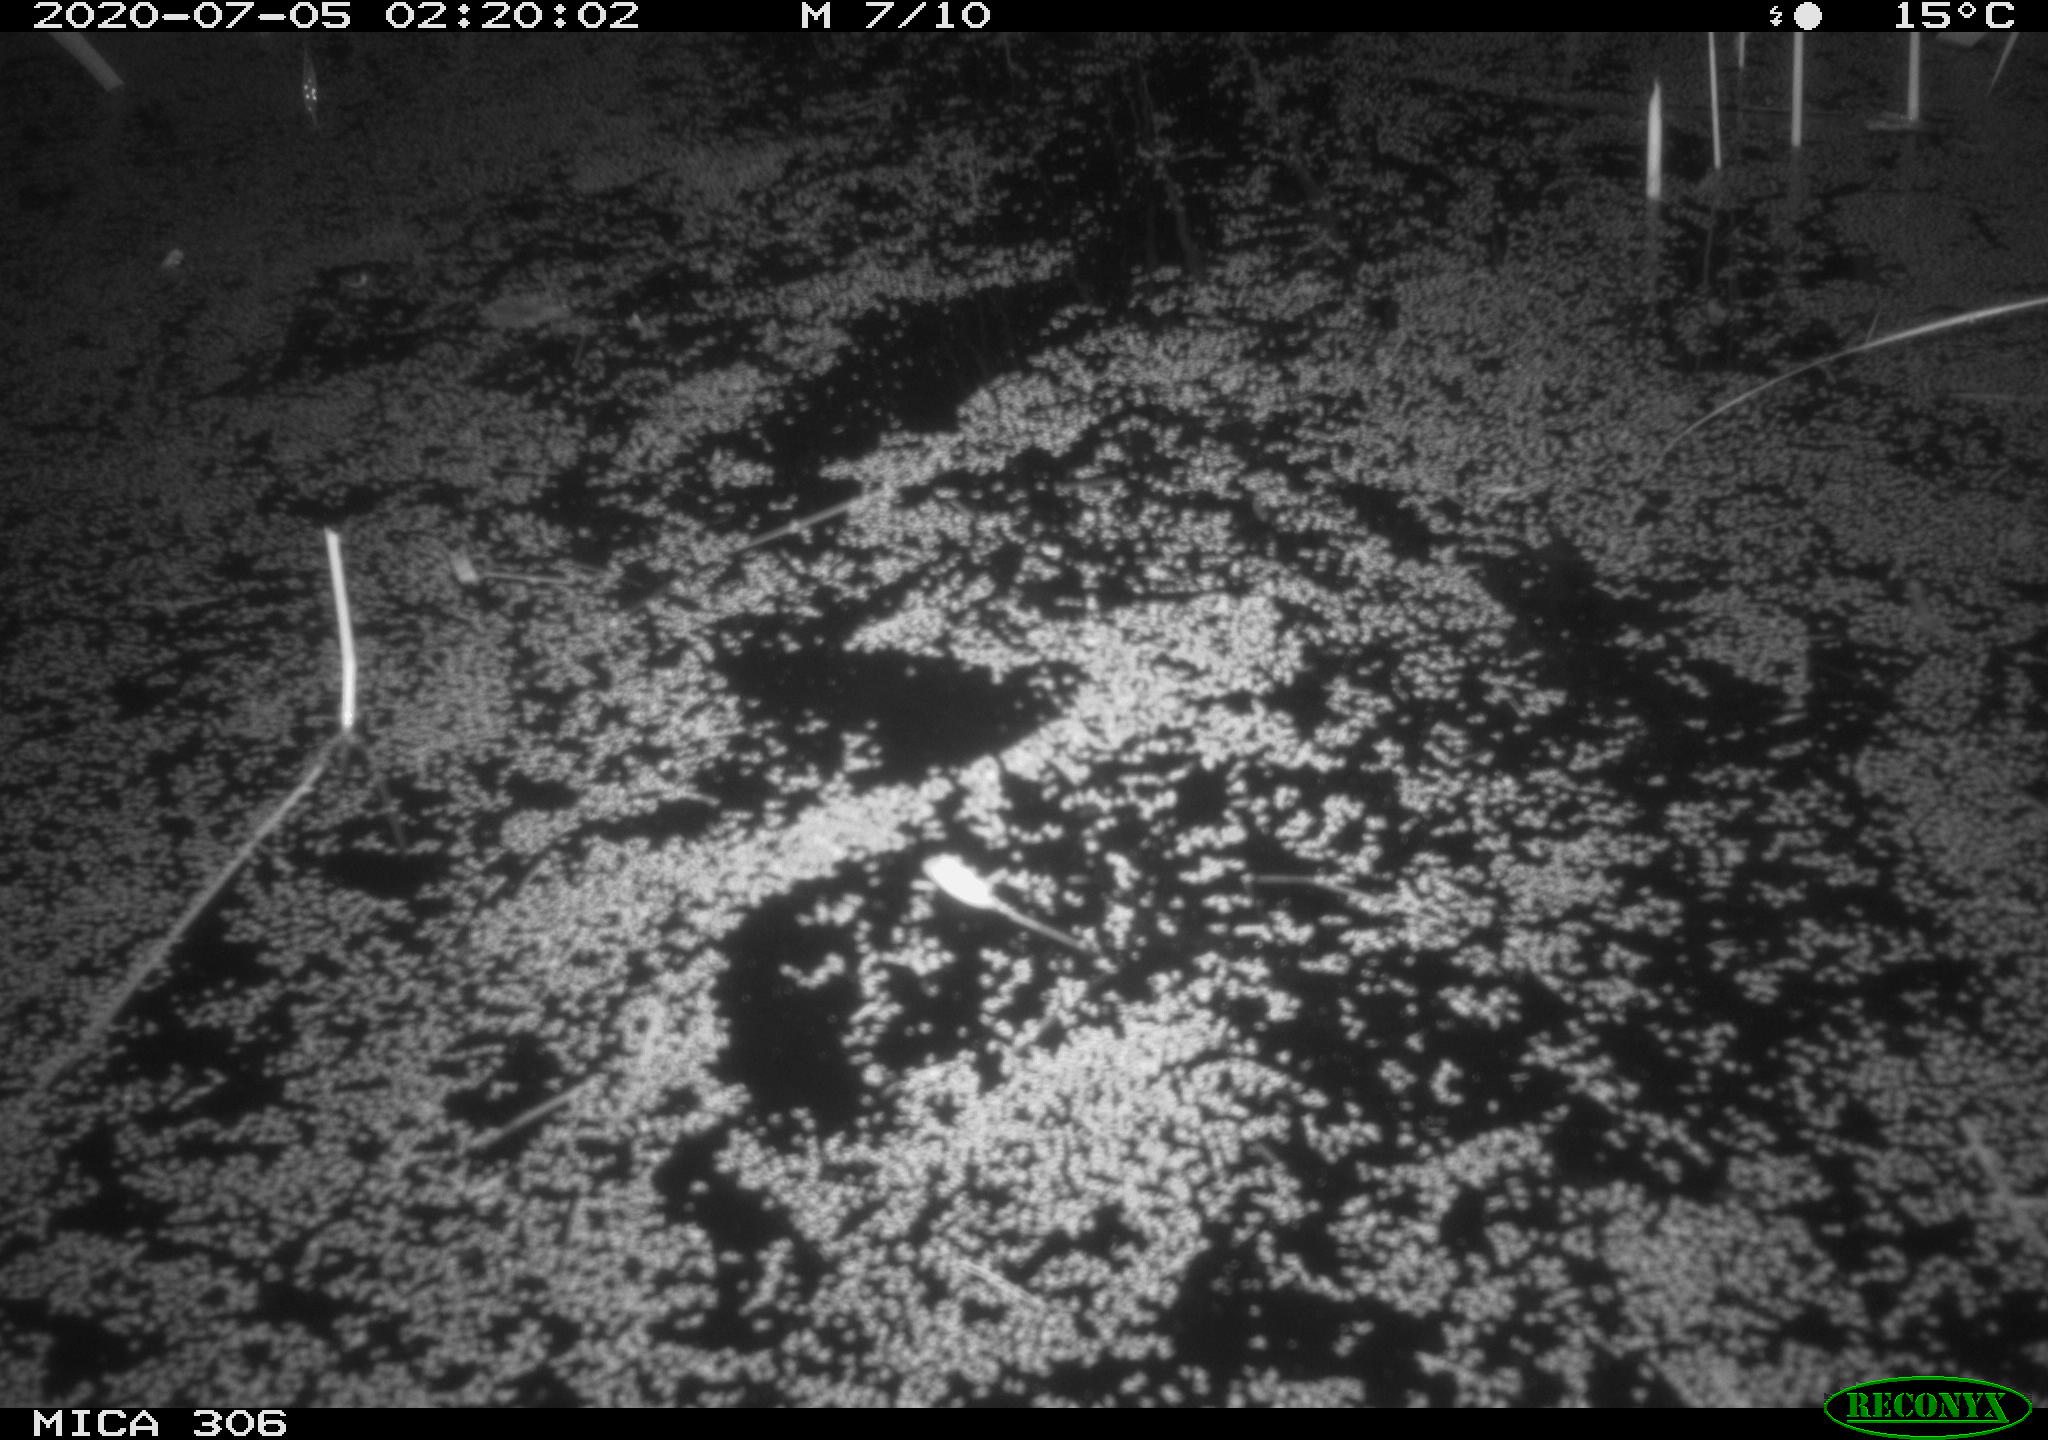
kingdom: Animalia
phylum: Chordata
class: Mammalia
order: Rodentia
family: Muridae
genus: Rattus
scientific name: Rattus norvegicus
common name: Brown rat
